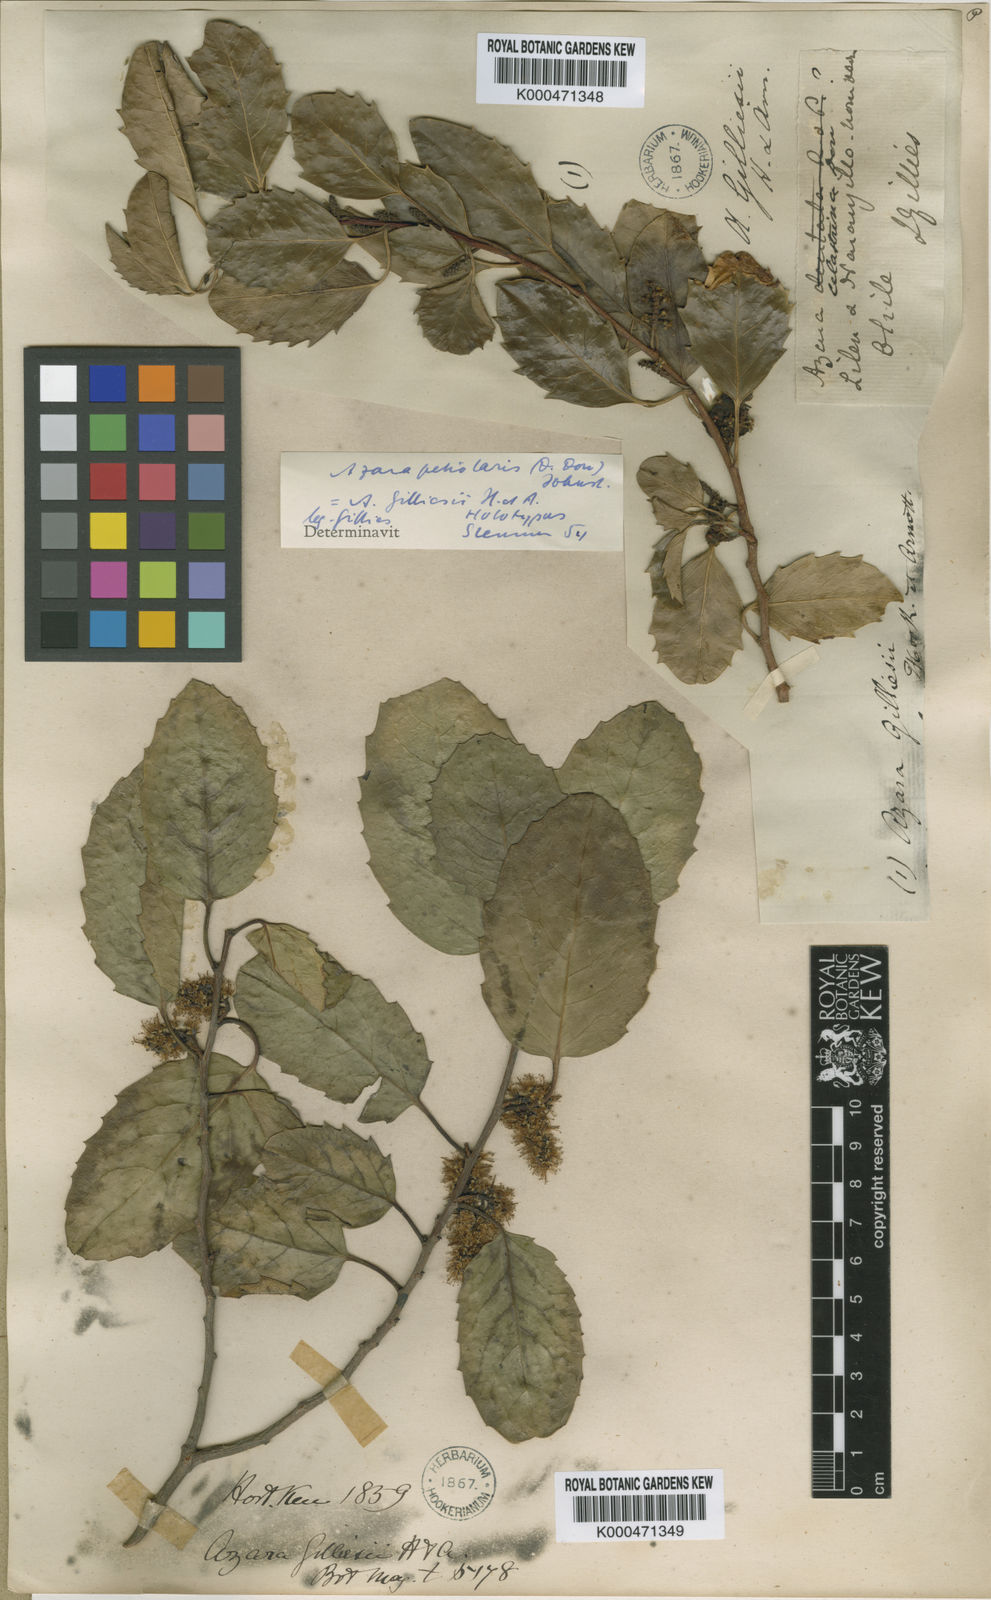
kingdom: Plantae
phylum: Tracheophyta
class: Magnoliopsida
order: Malpighiales
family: Salicaceae
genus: Azara
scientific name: Azara petiolaris
